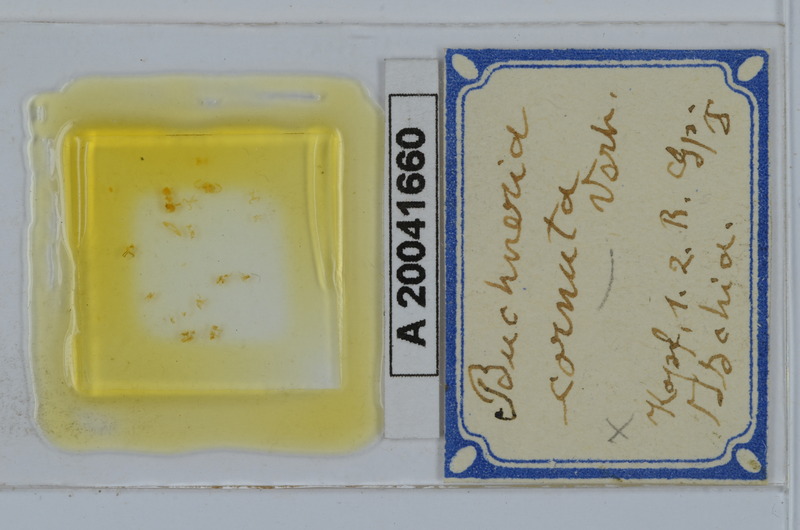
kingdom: Animalia
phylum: Arthropoda
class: Diplopoda
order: Julida
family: Julidae
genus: Buchneria
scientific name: Buchneria cornuta
